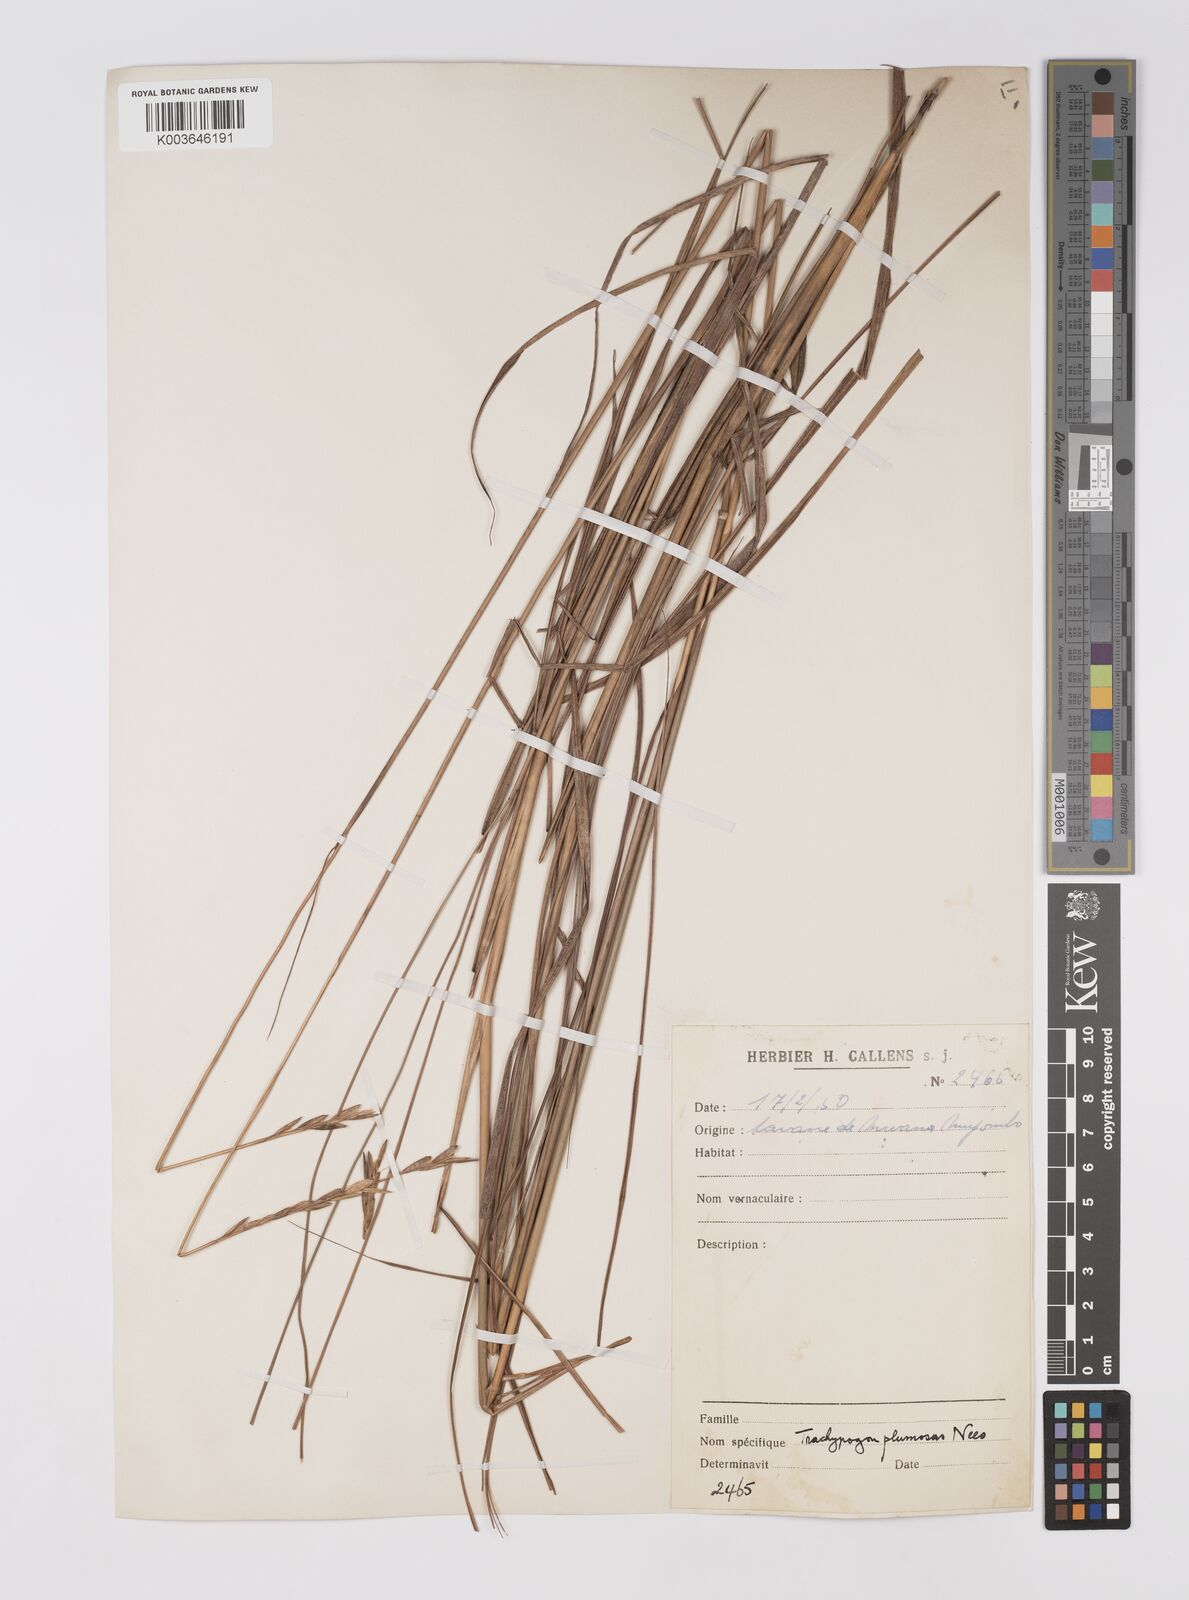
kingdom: Plantae
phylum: Tracheophyta
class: Liliopsida
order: Poales
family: Poaceae
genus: Trachypogon
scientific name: Trachypogon spicatus
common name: Crinkle-awn
